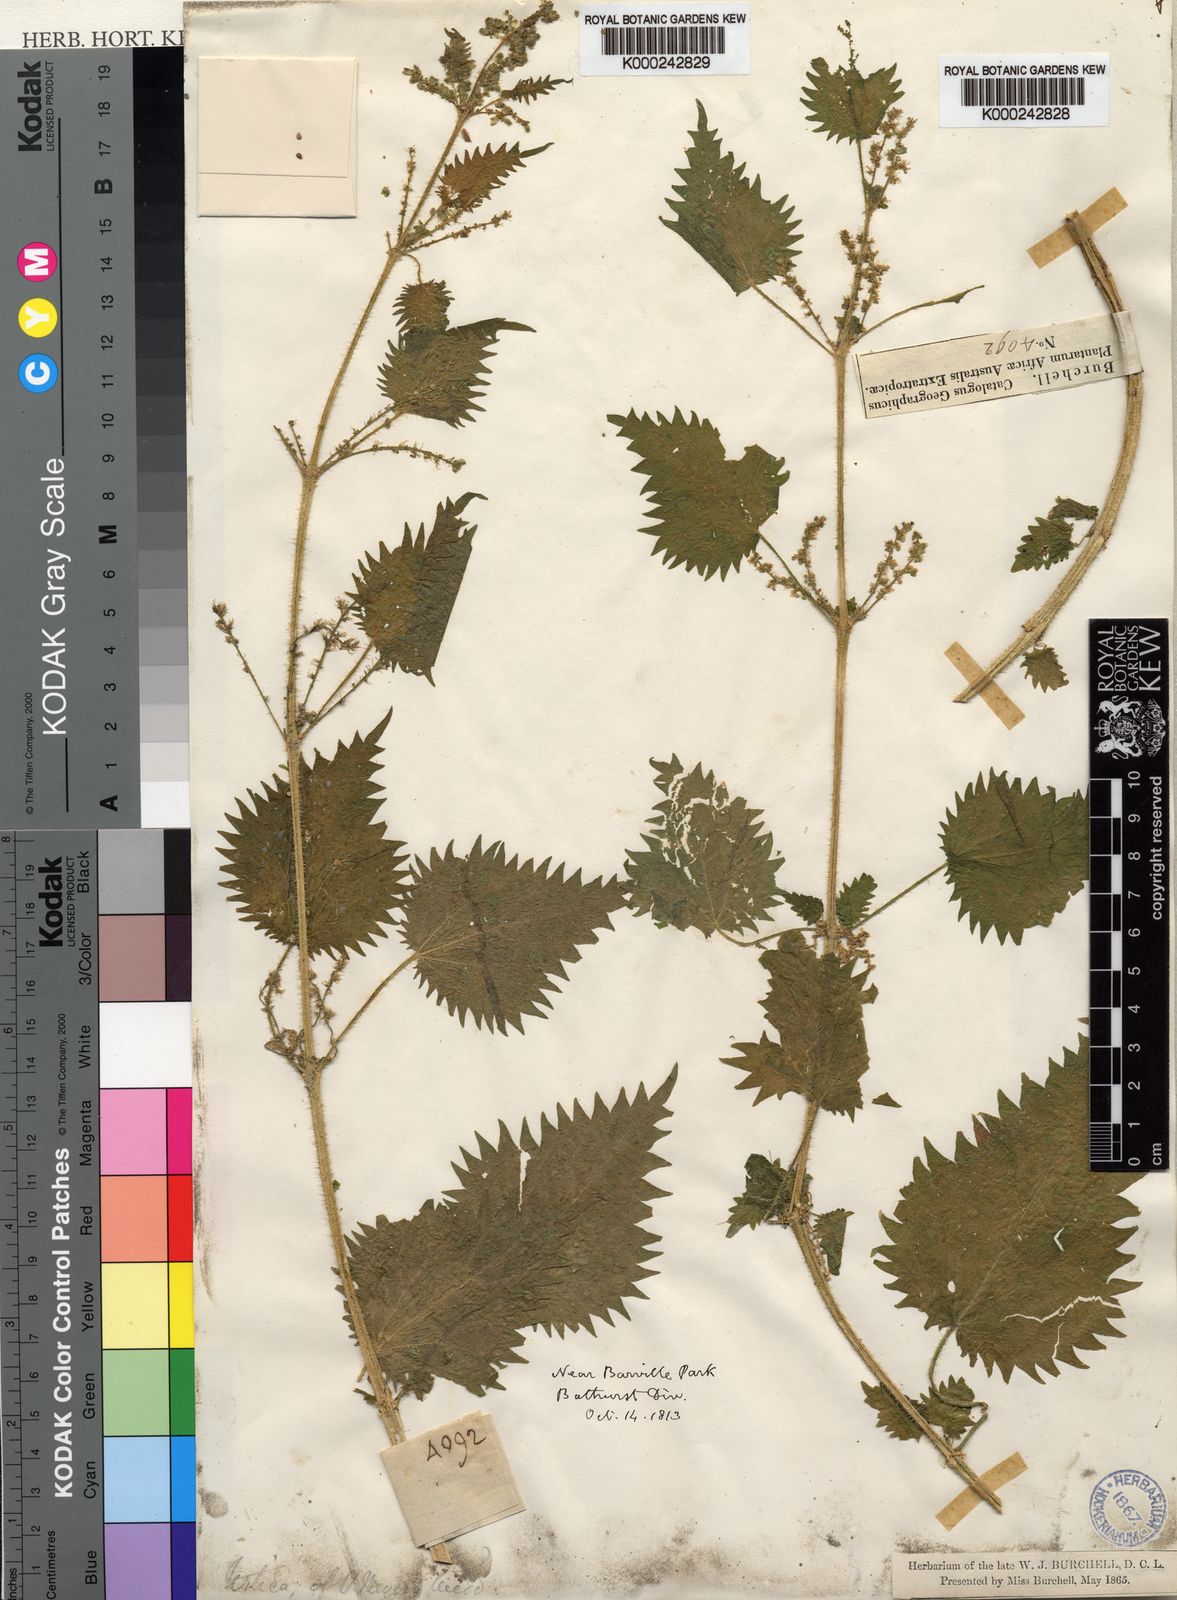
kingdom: Plantae
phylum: Tracheophyta
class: Magnoliopsida
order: Rosales
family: Urticaceae
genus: Urtica
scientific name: Urtica lobata
